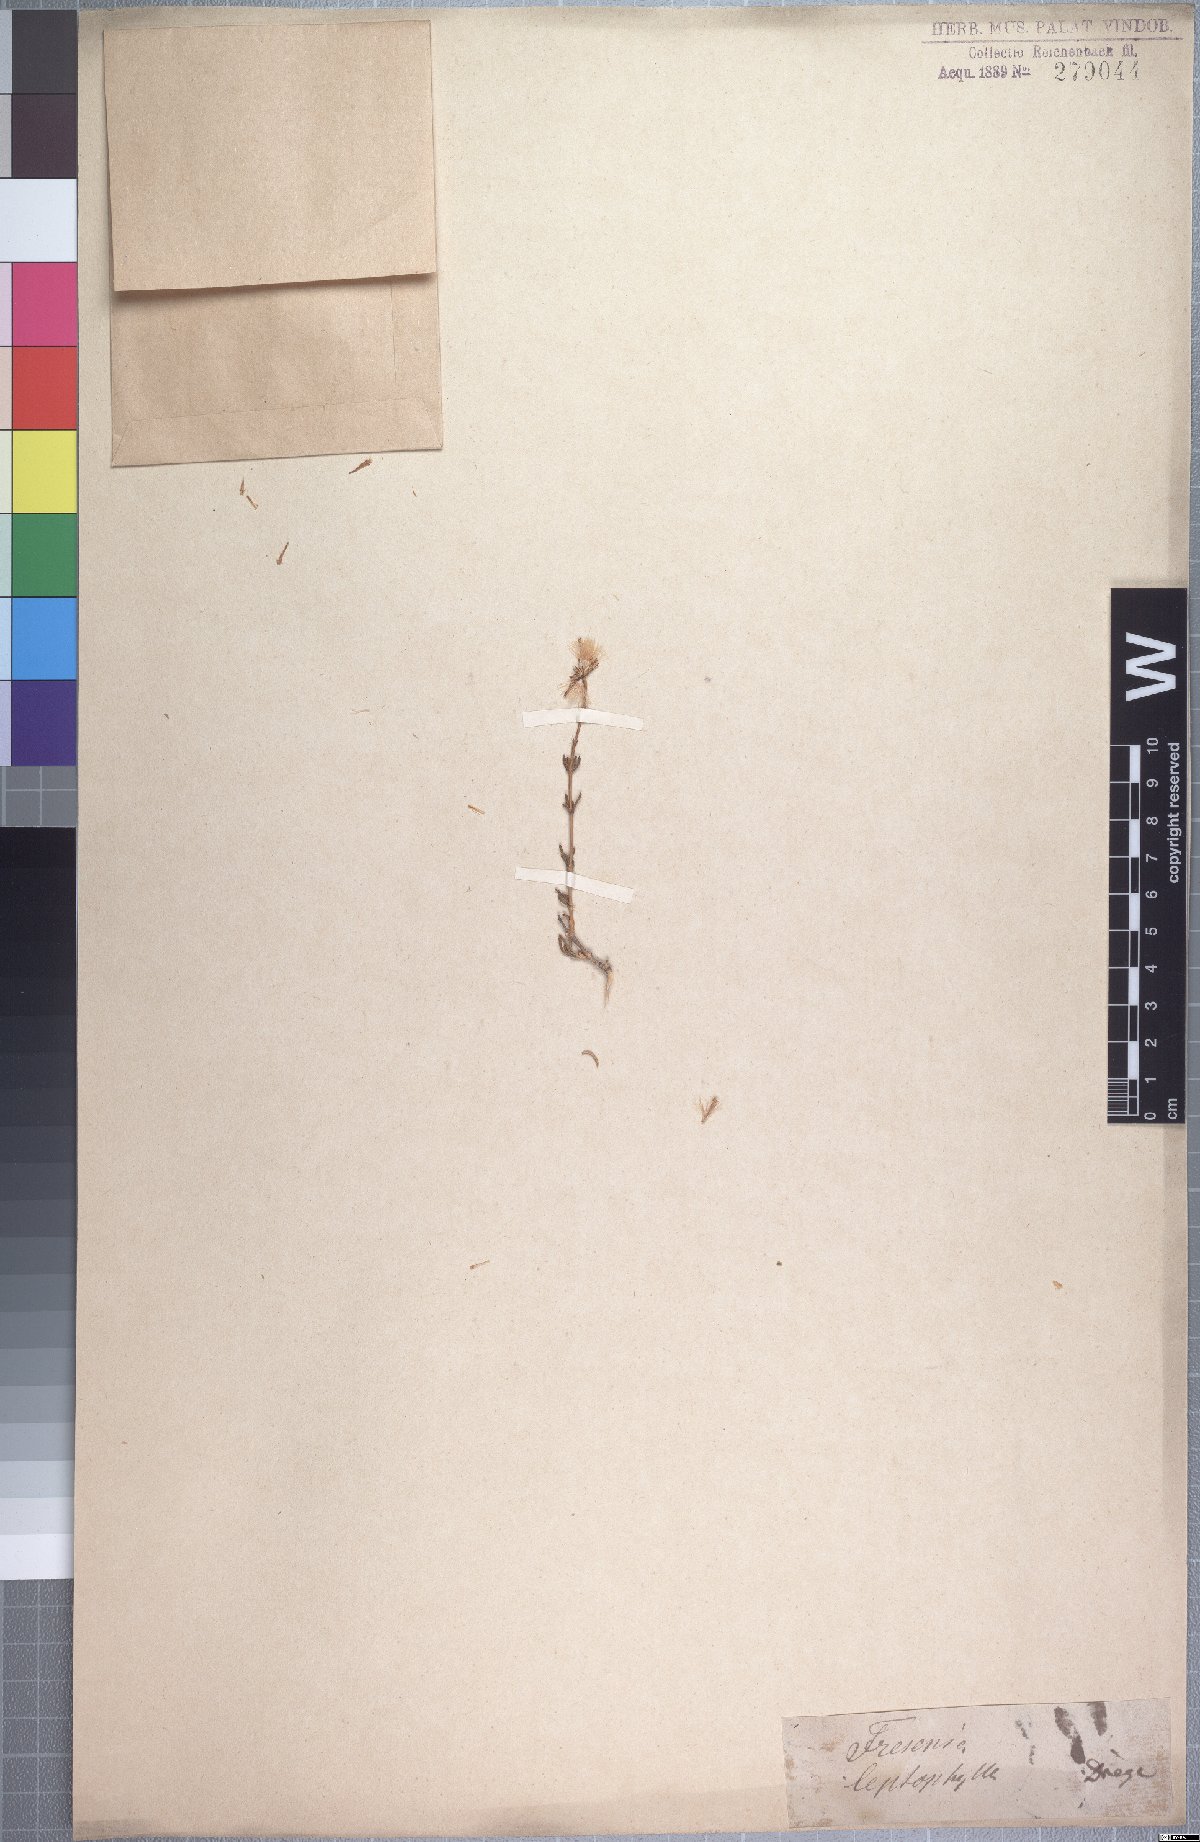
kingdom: Plantae
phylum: Tracheophyta
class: Magnoliopsida
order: Asterales
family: Asteraceae
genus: Felicia
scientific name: Felicia filifolia
